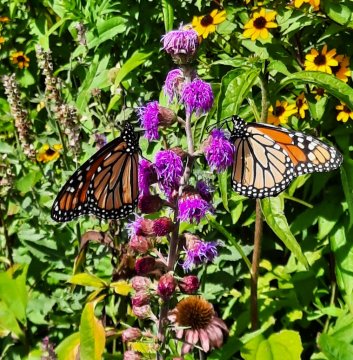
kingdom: Animalia
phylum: Arthropoda
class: Insecta
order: Lepidoptera
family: Nymphalidae
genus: Danaus
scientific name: Danaus plexippus
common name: Monarch
